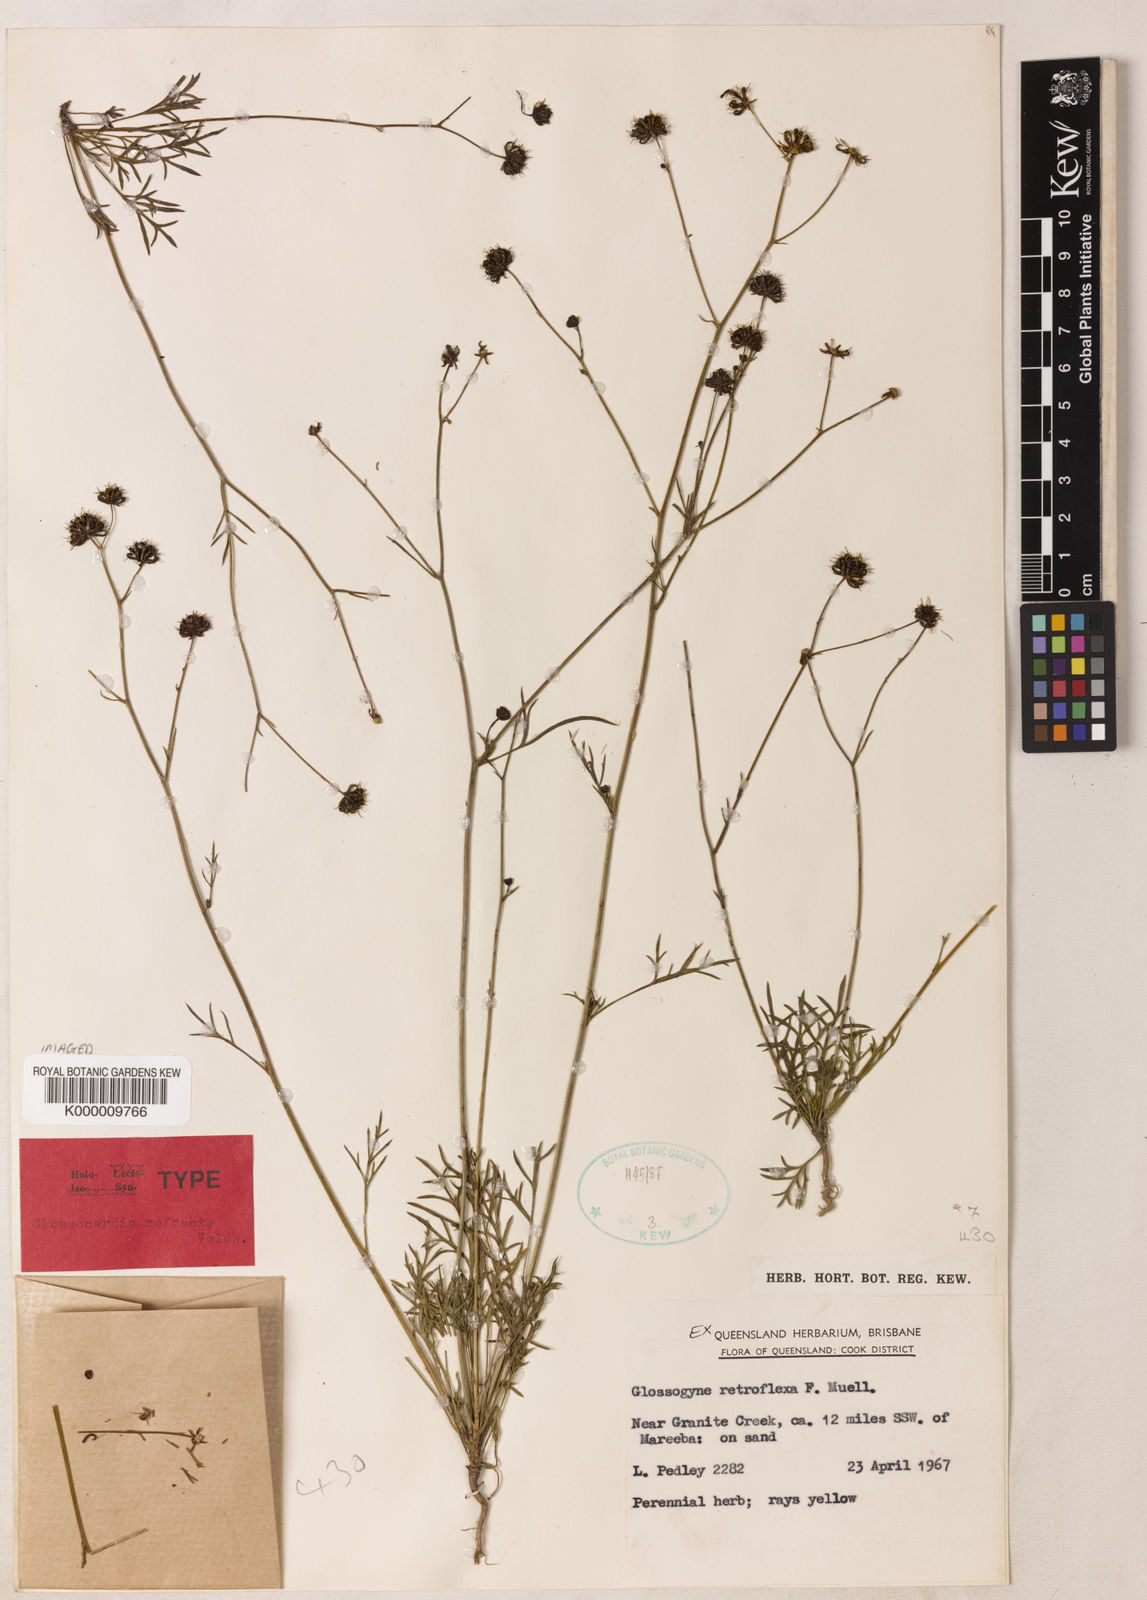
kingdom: Plantae
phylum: Tracheophyta
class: Magnoliopsida
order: Asterales
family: Asteraceae
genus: Glossocardia
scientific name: Glossocardia refracta
